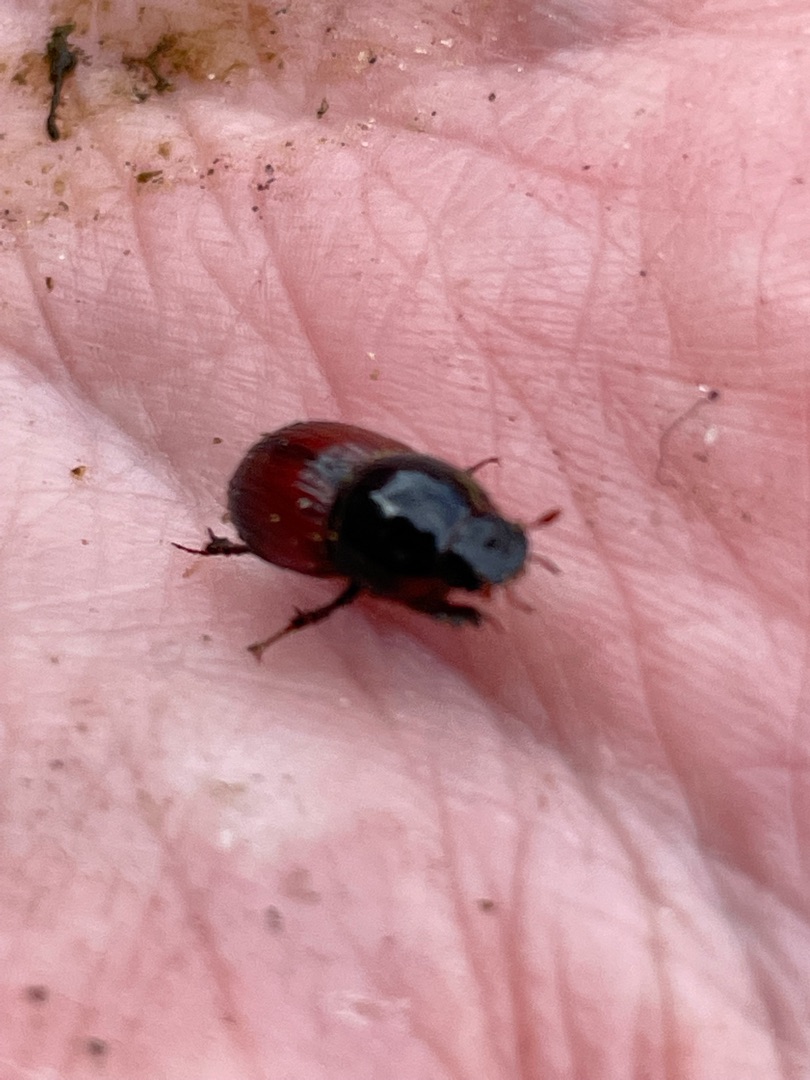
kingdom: Animalia
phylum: Arthropoda
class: Insecta
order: Coleoptera
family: Scarabaeidae
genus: Rhodaphodius
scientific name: Rhodaphodius foetens
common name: Rødbuget møgbille
